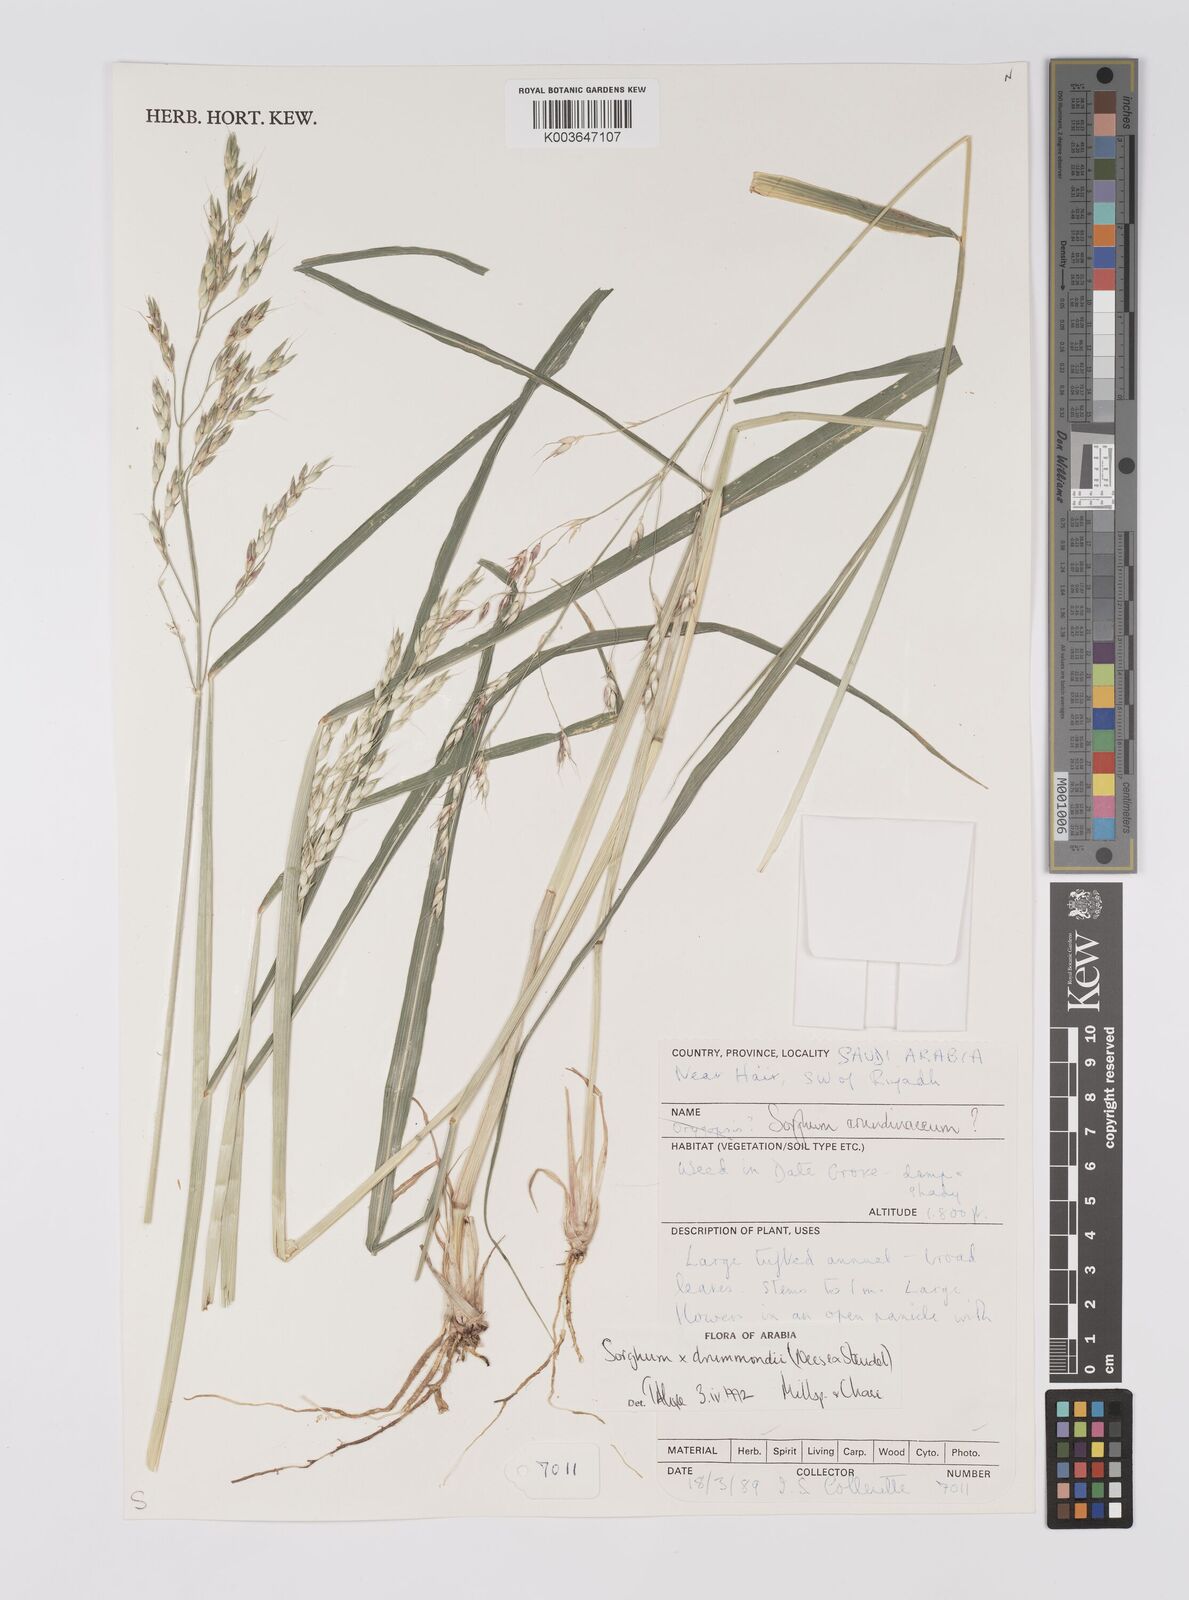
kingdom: Plantae
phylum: Tracheophyta
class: Liliopsida
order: Poales
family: Poaceae
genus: Sorghum
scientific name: Sorghum drummondii
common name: Sudangrass
